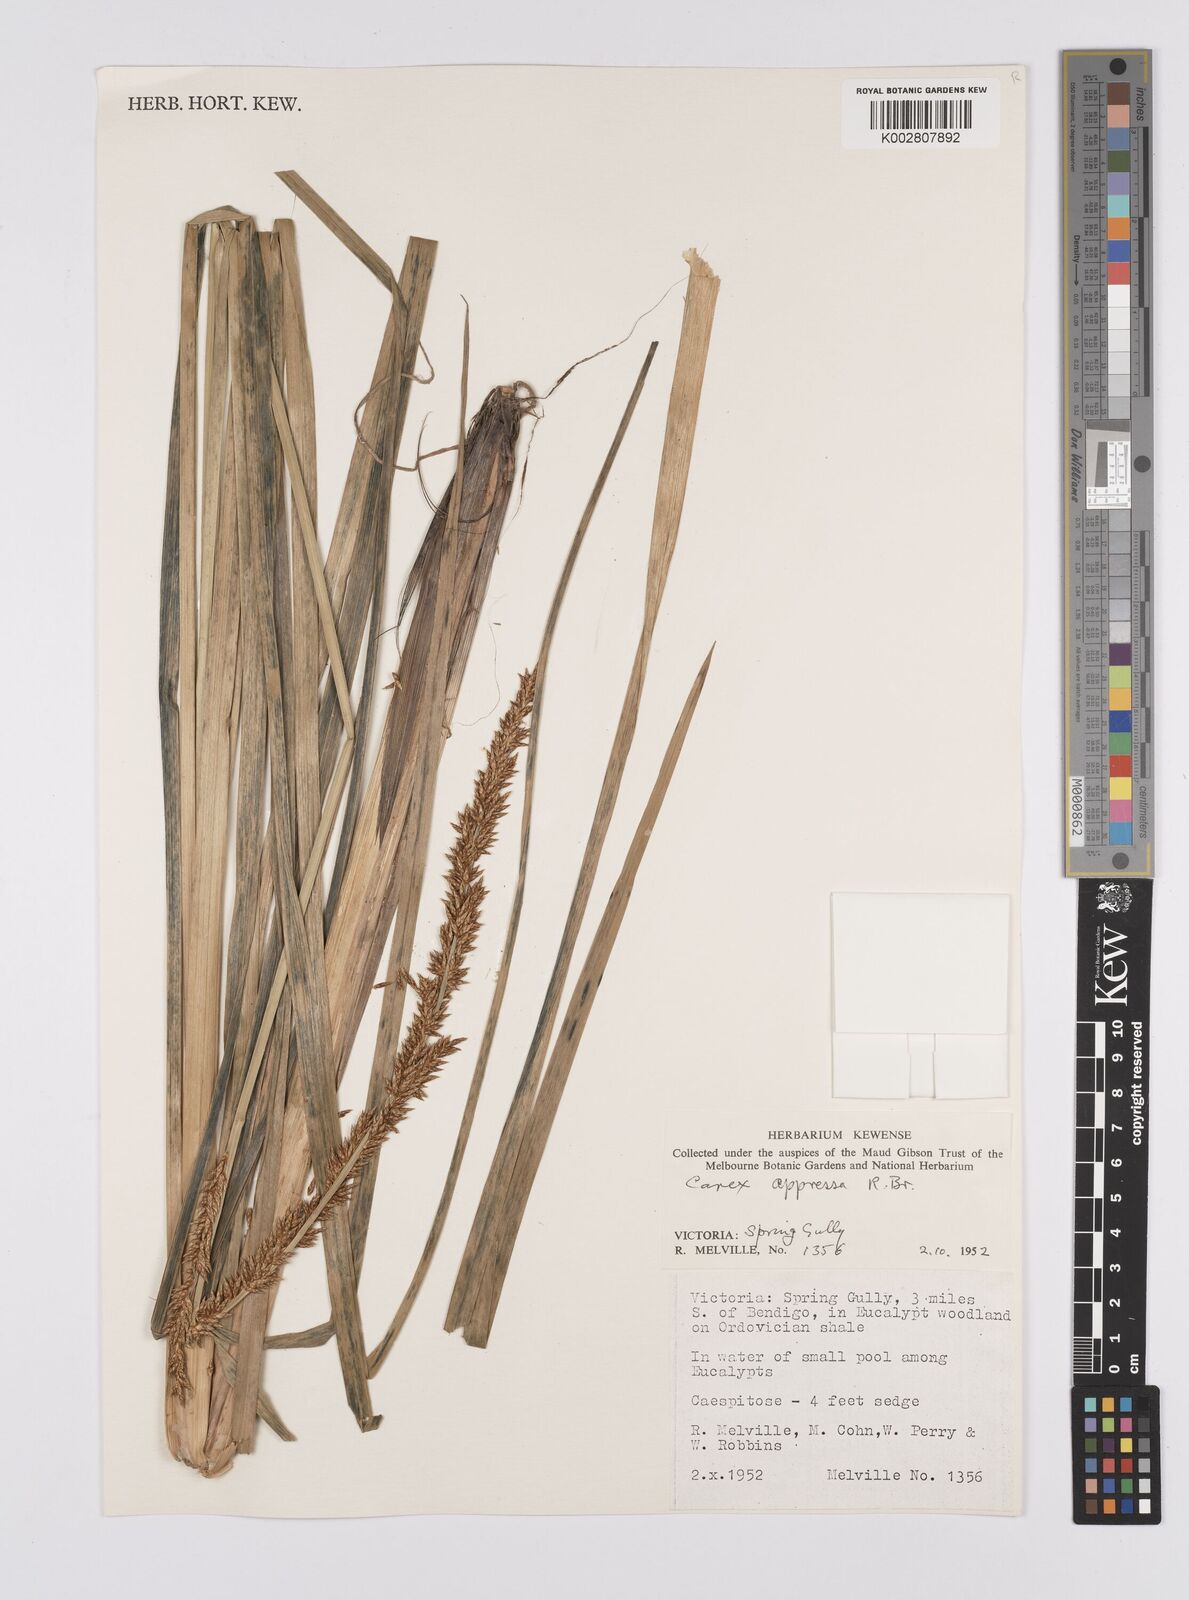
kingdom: Plantae
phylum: Tracheophyta
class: Liliopsida
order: Poales
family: Cyperaceae
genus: Carex
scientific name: Carex appressa
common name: Tussock sedge
